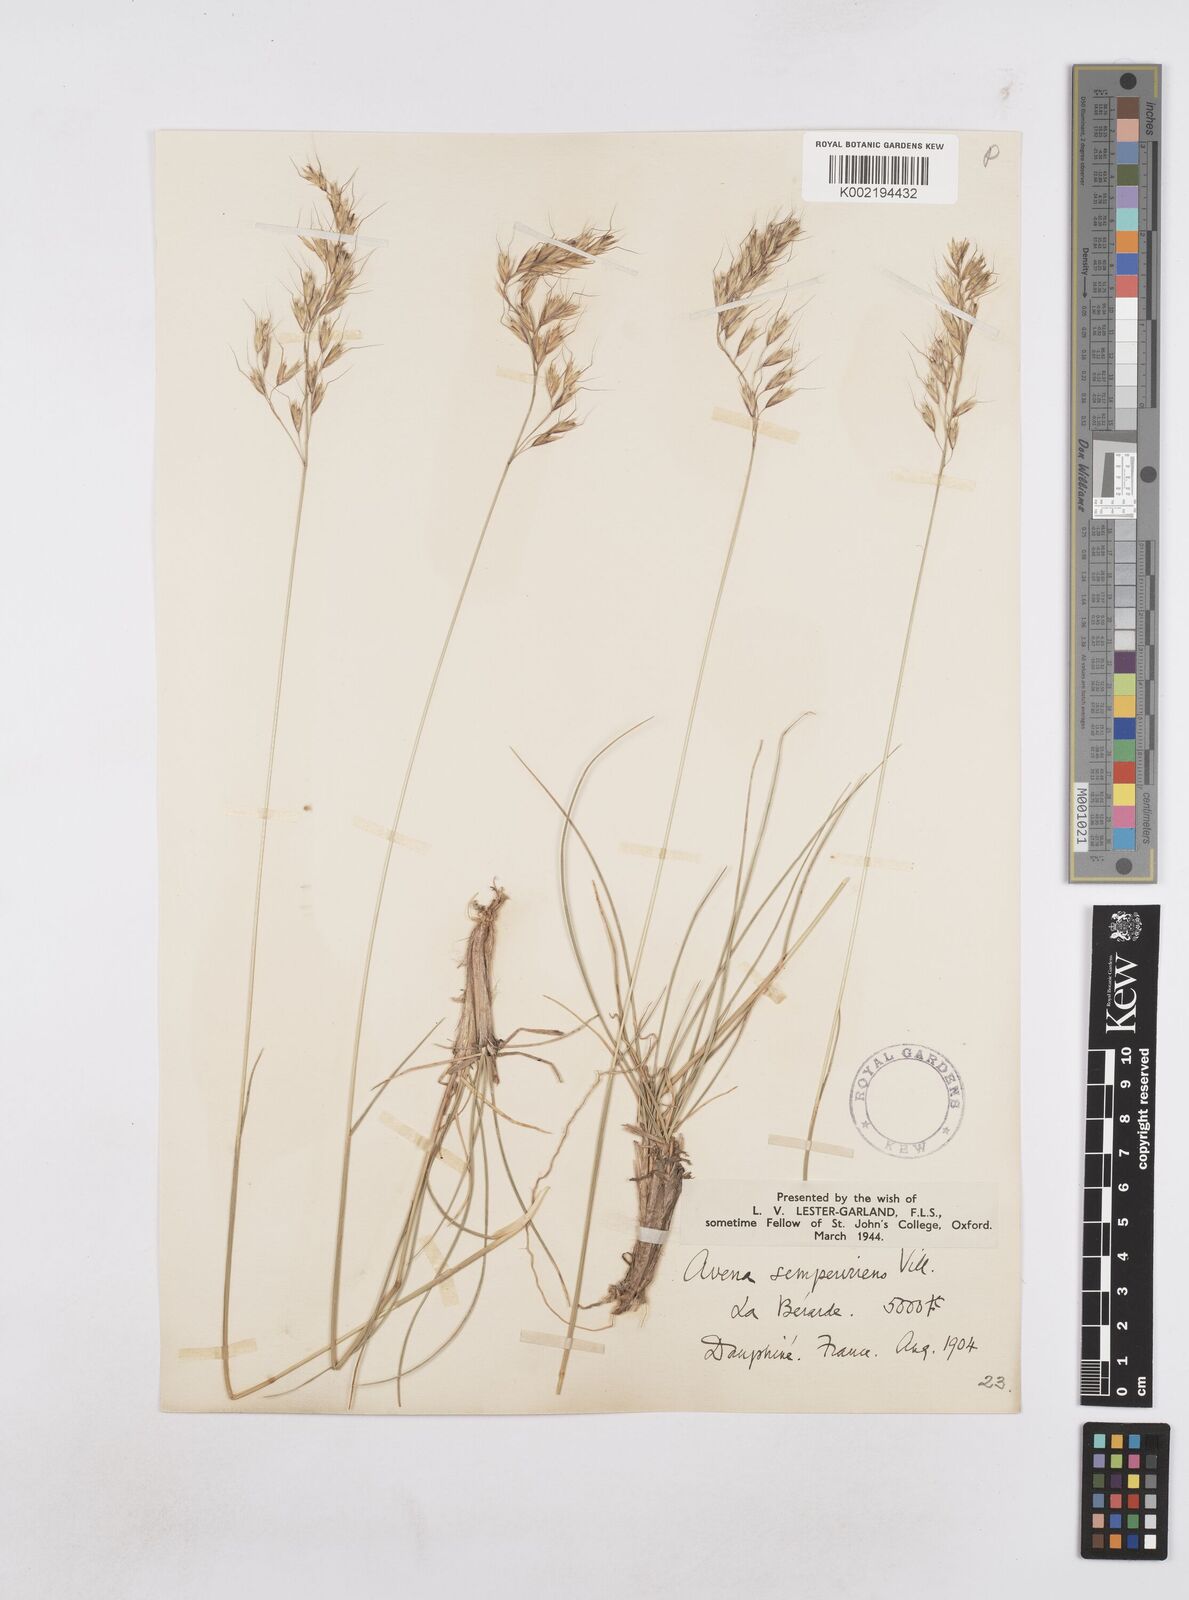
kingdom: Plantae
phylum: Tracheophyta
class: Liliopsida
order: Poales
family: Poaceae
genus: Helictotrichon
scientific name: Helictotrichon sempervirens
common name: Blue oat-grass
